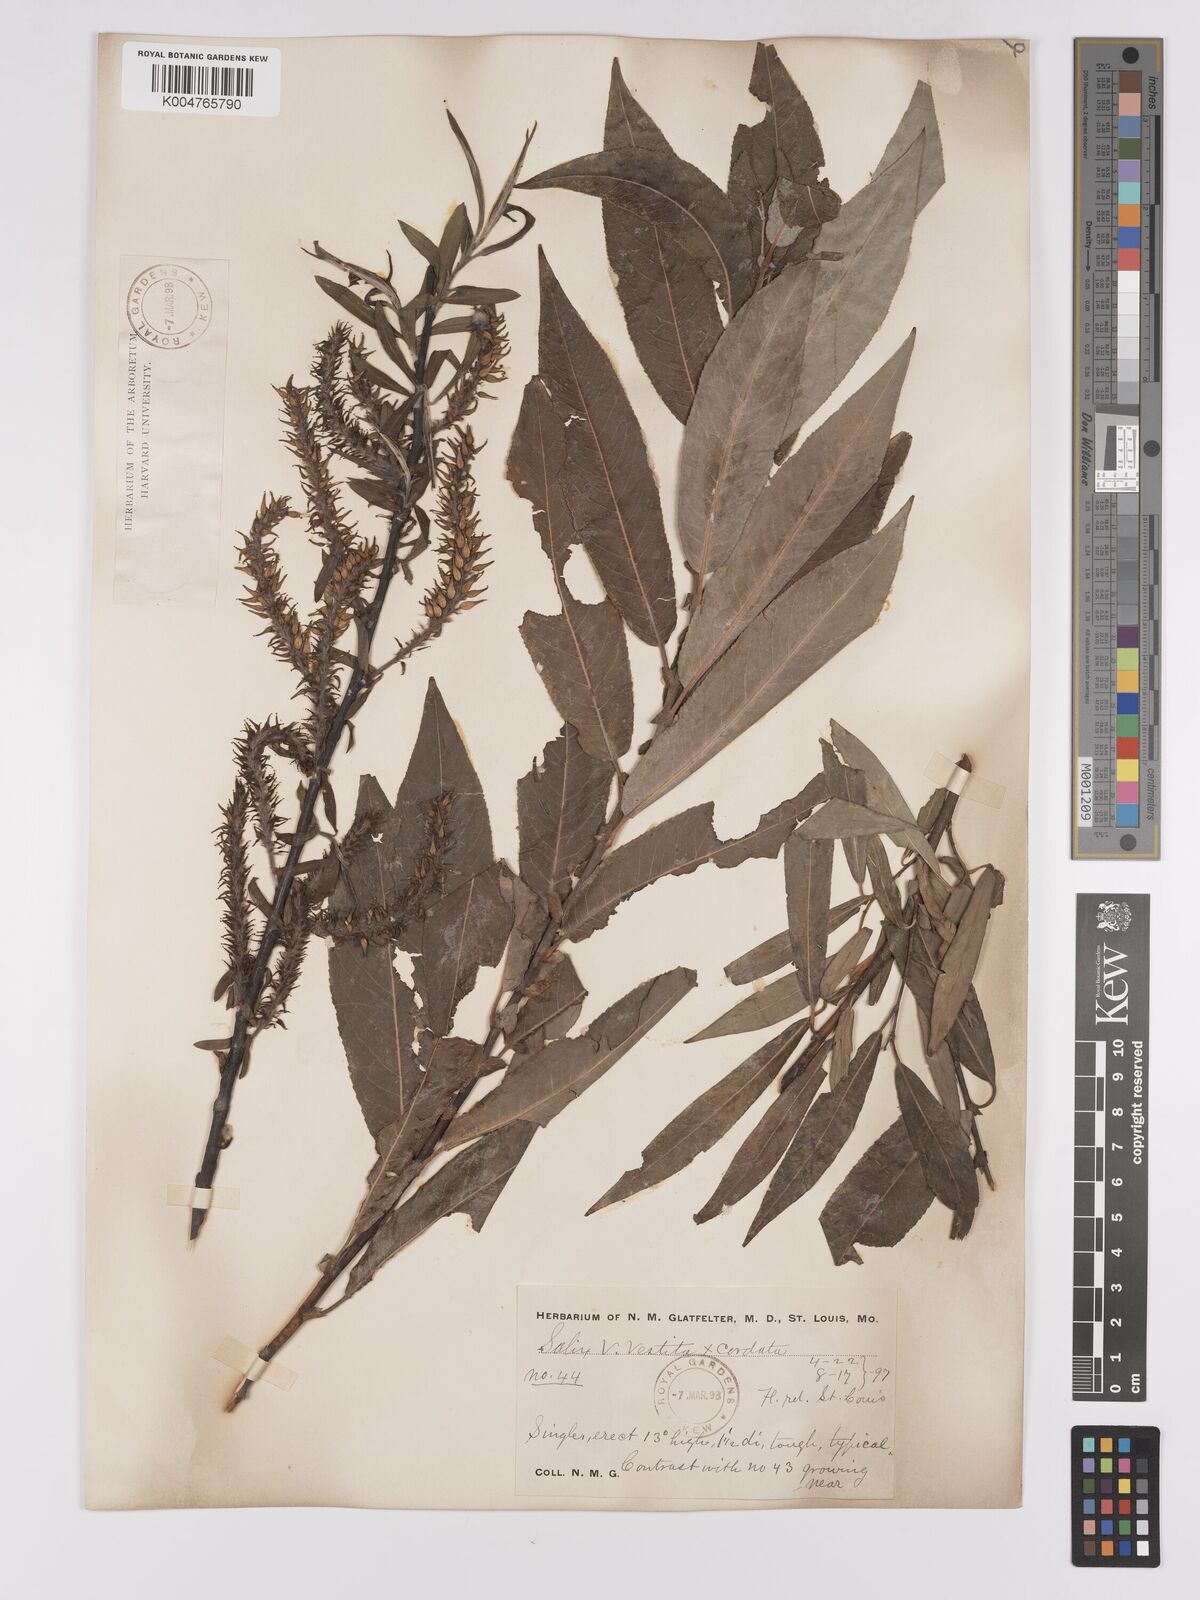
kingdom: Plantae
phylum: Tracheophyta
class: Magnoliopsida
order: Malpighiales
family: Salicaceae
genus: Salix
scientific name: Salix vestita
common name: Hairy willow
